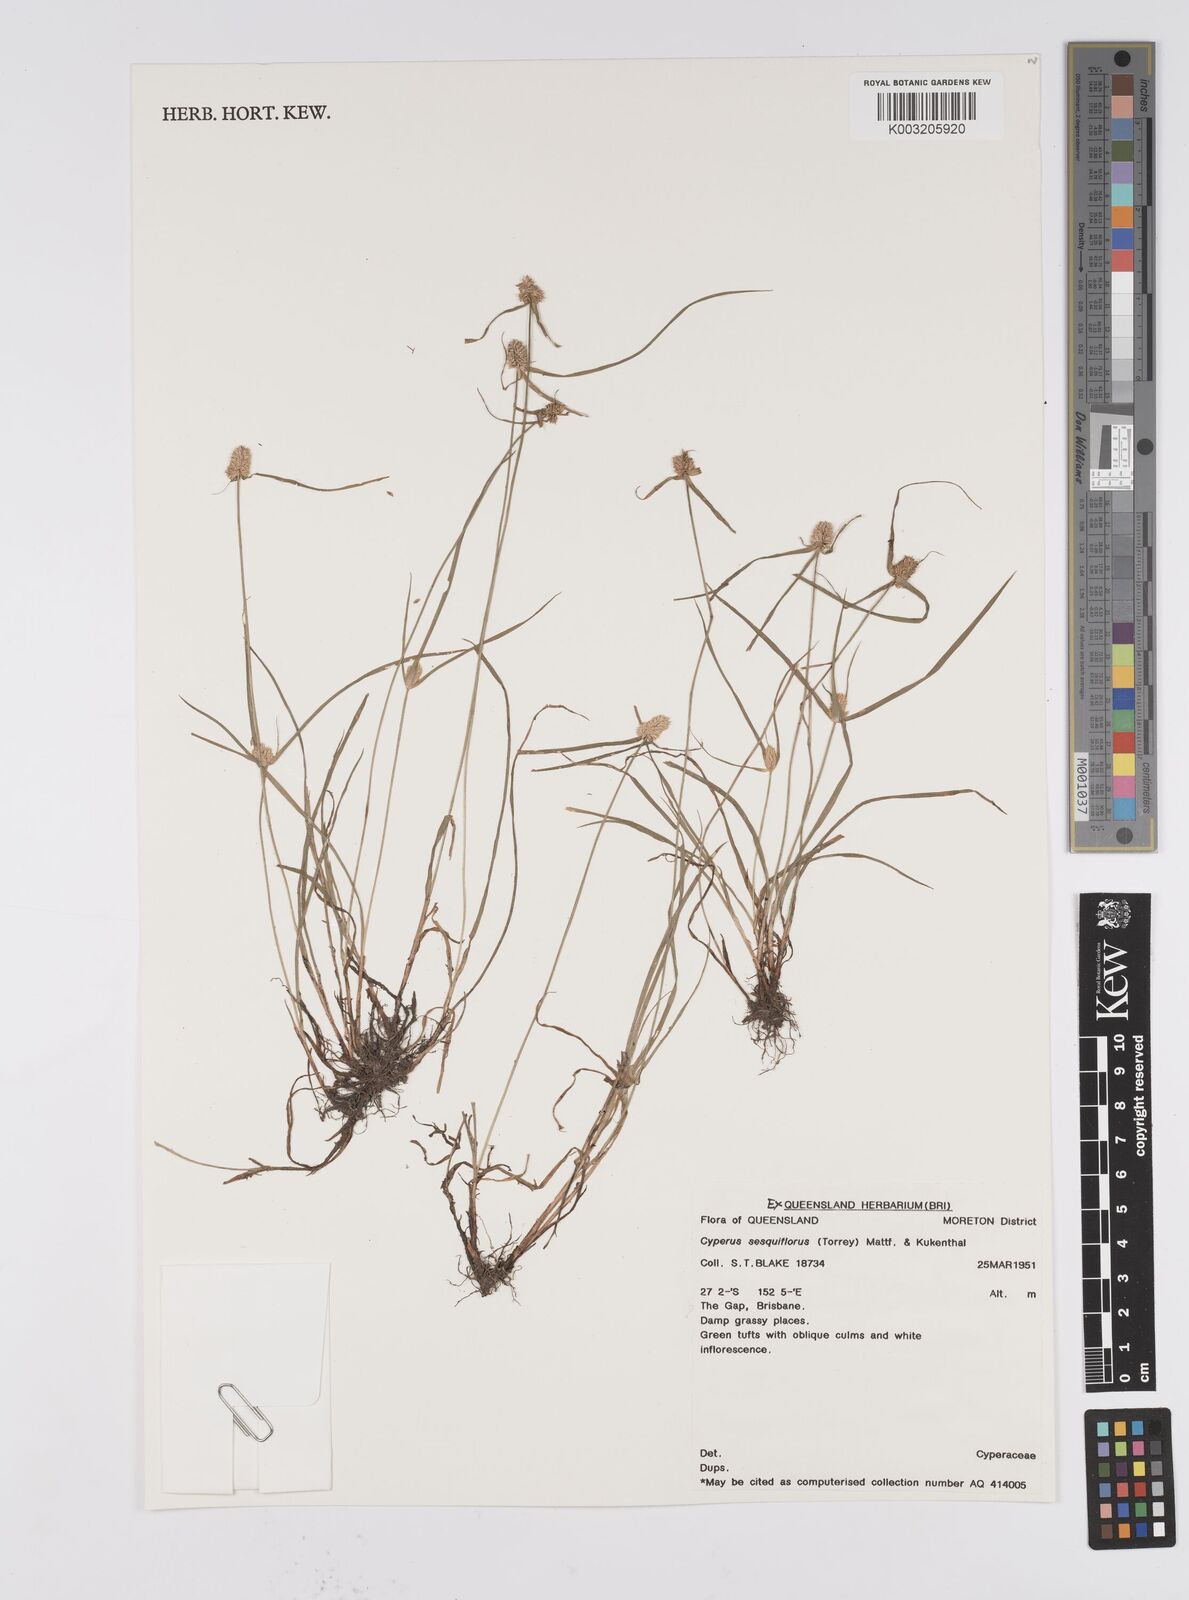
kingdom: Plantae
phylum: Tracheophyta
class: Liliopsida
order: Poales
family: Cyperaceae
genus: Cyperus
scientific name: Cyperus
